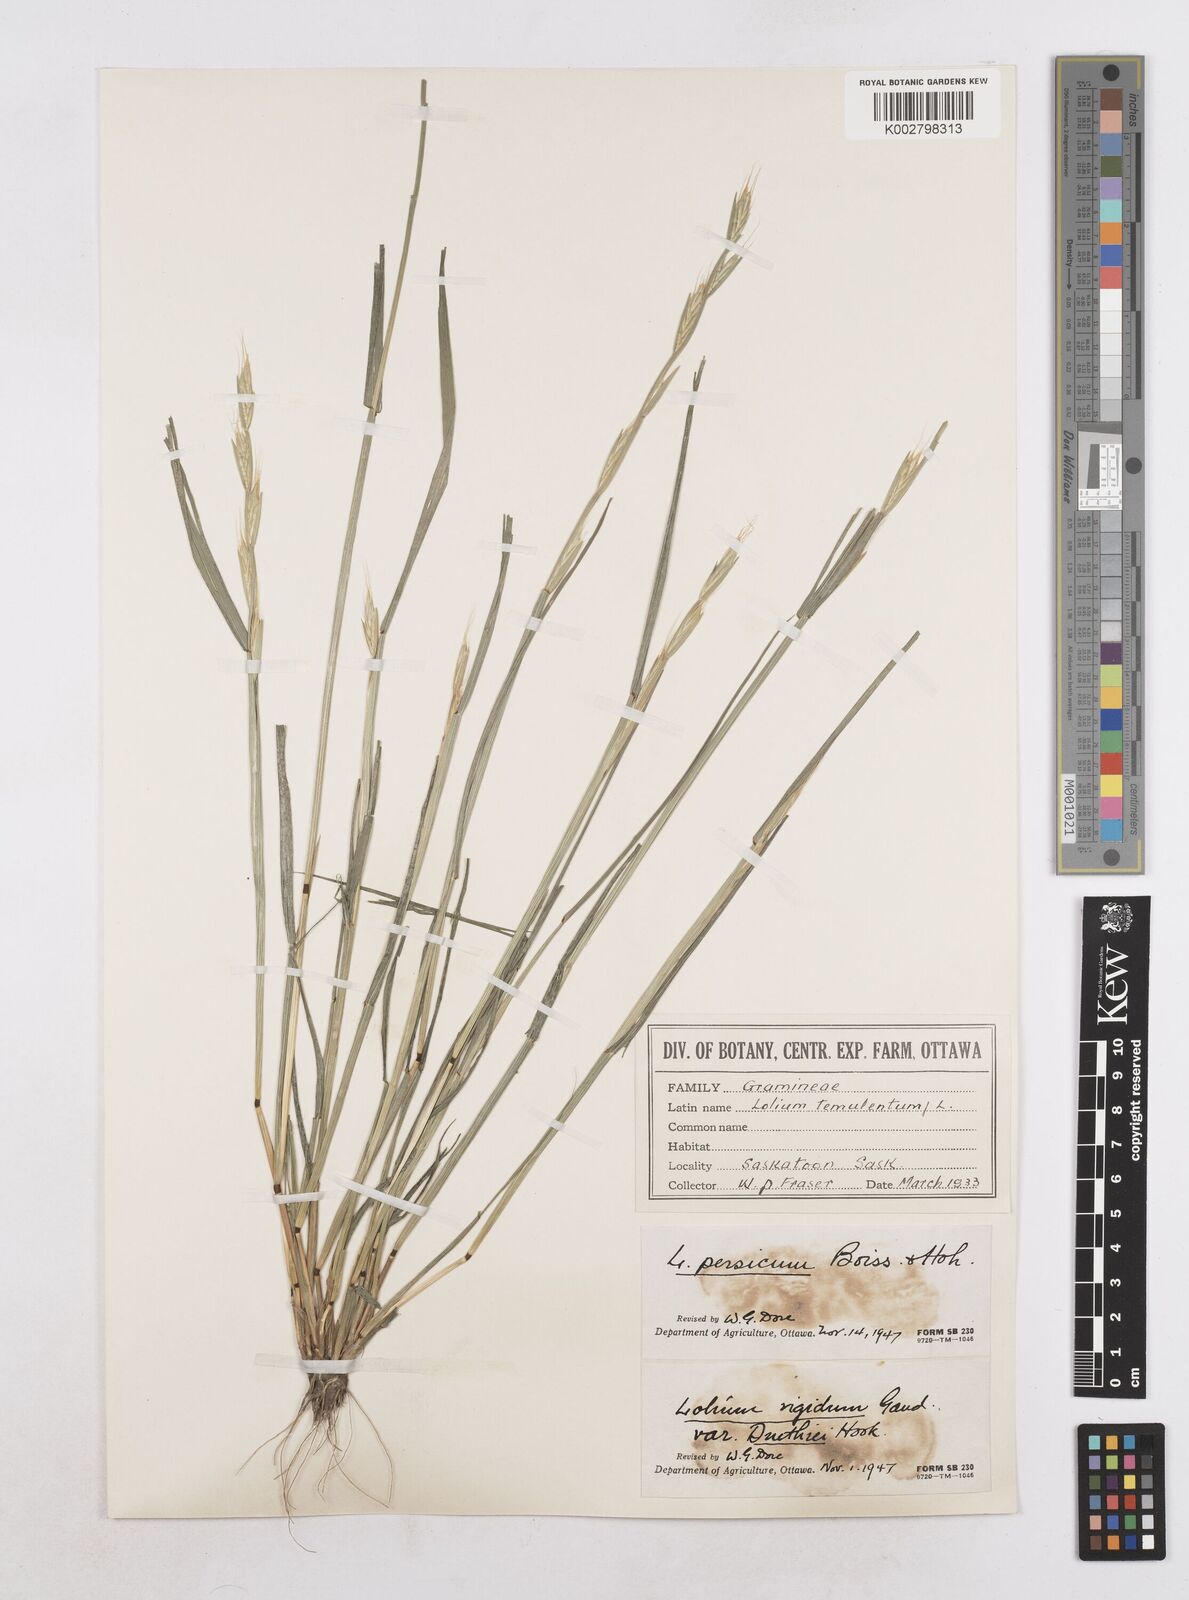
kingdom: Plantae
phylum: Tracheophyta
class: Liliopsida
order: Poales
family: Poaceae
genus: Lolium
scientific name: Lolium persicum
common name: Persian ryegrass
